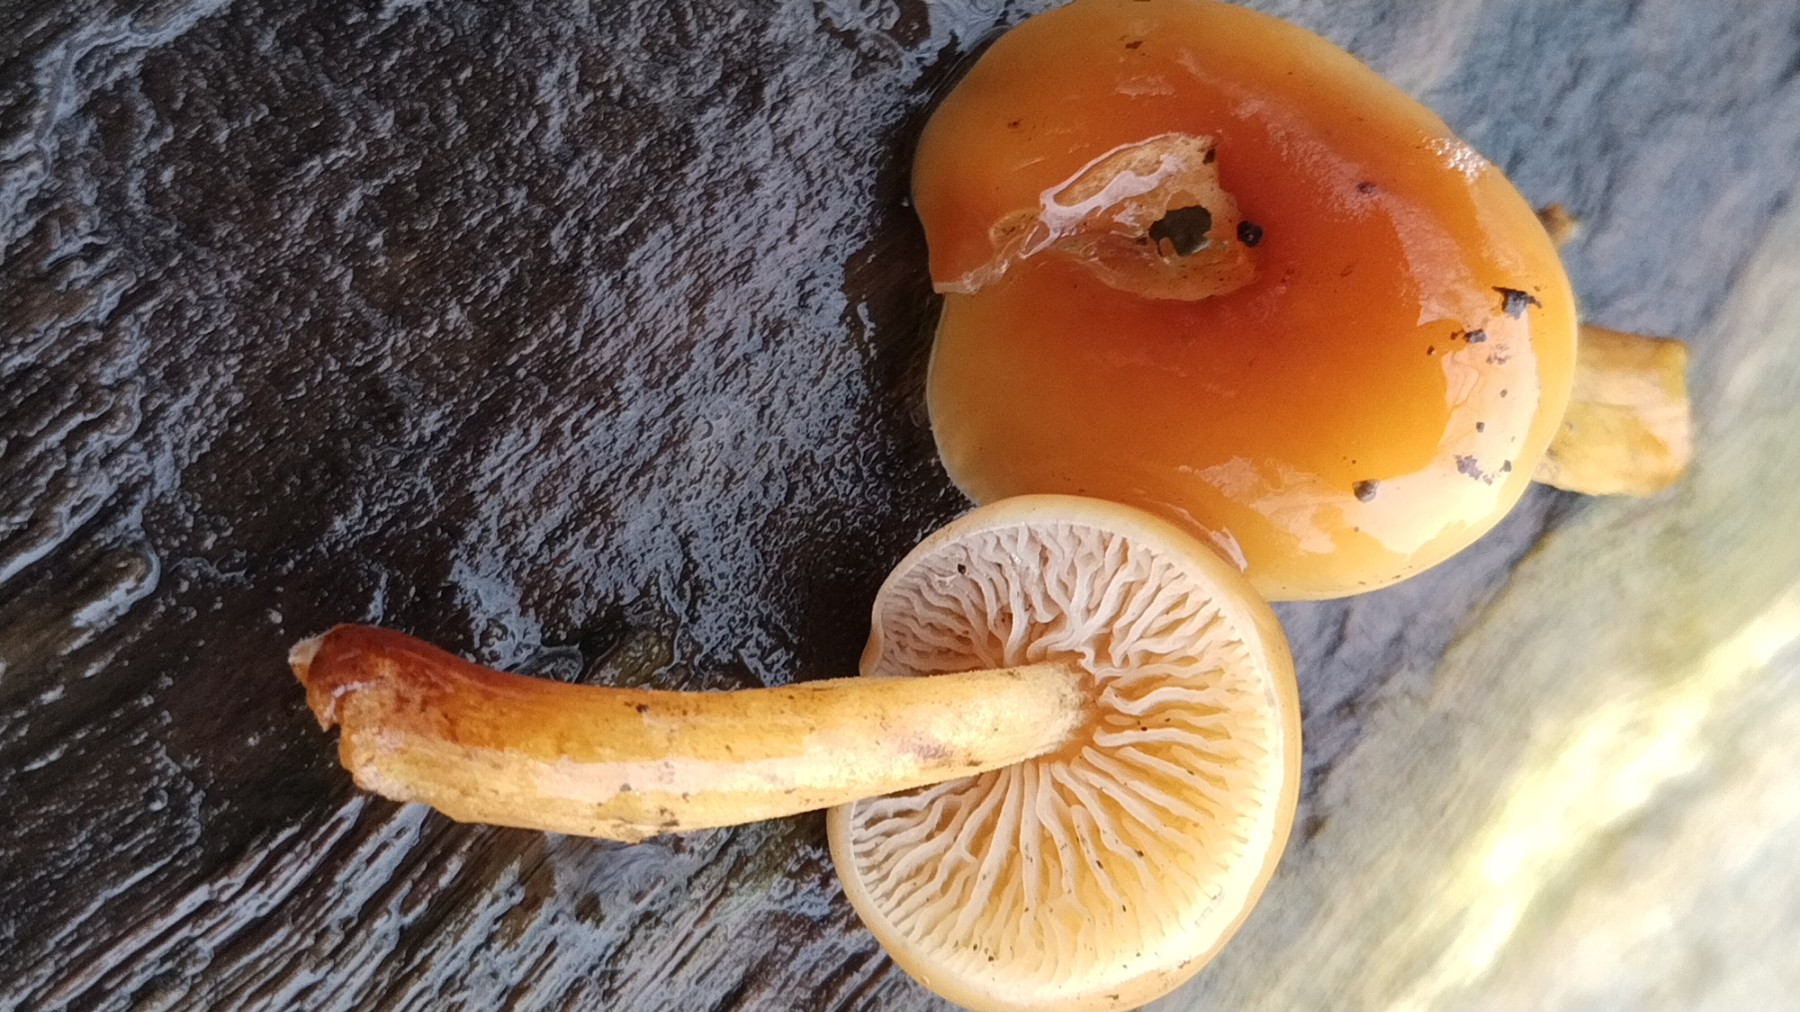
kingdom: Fungi
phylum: Basidiomycota
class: Agaricomycetes
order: Agaricales
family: Physalacriaceae
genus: Flammulina
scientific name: Flammulina velutipes
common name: gul fløjlsfod
